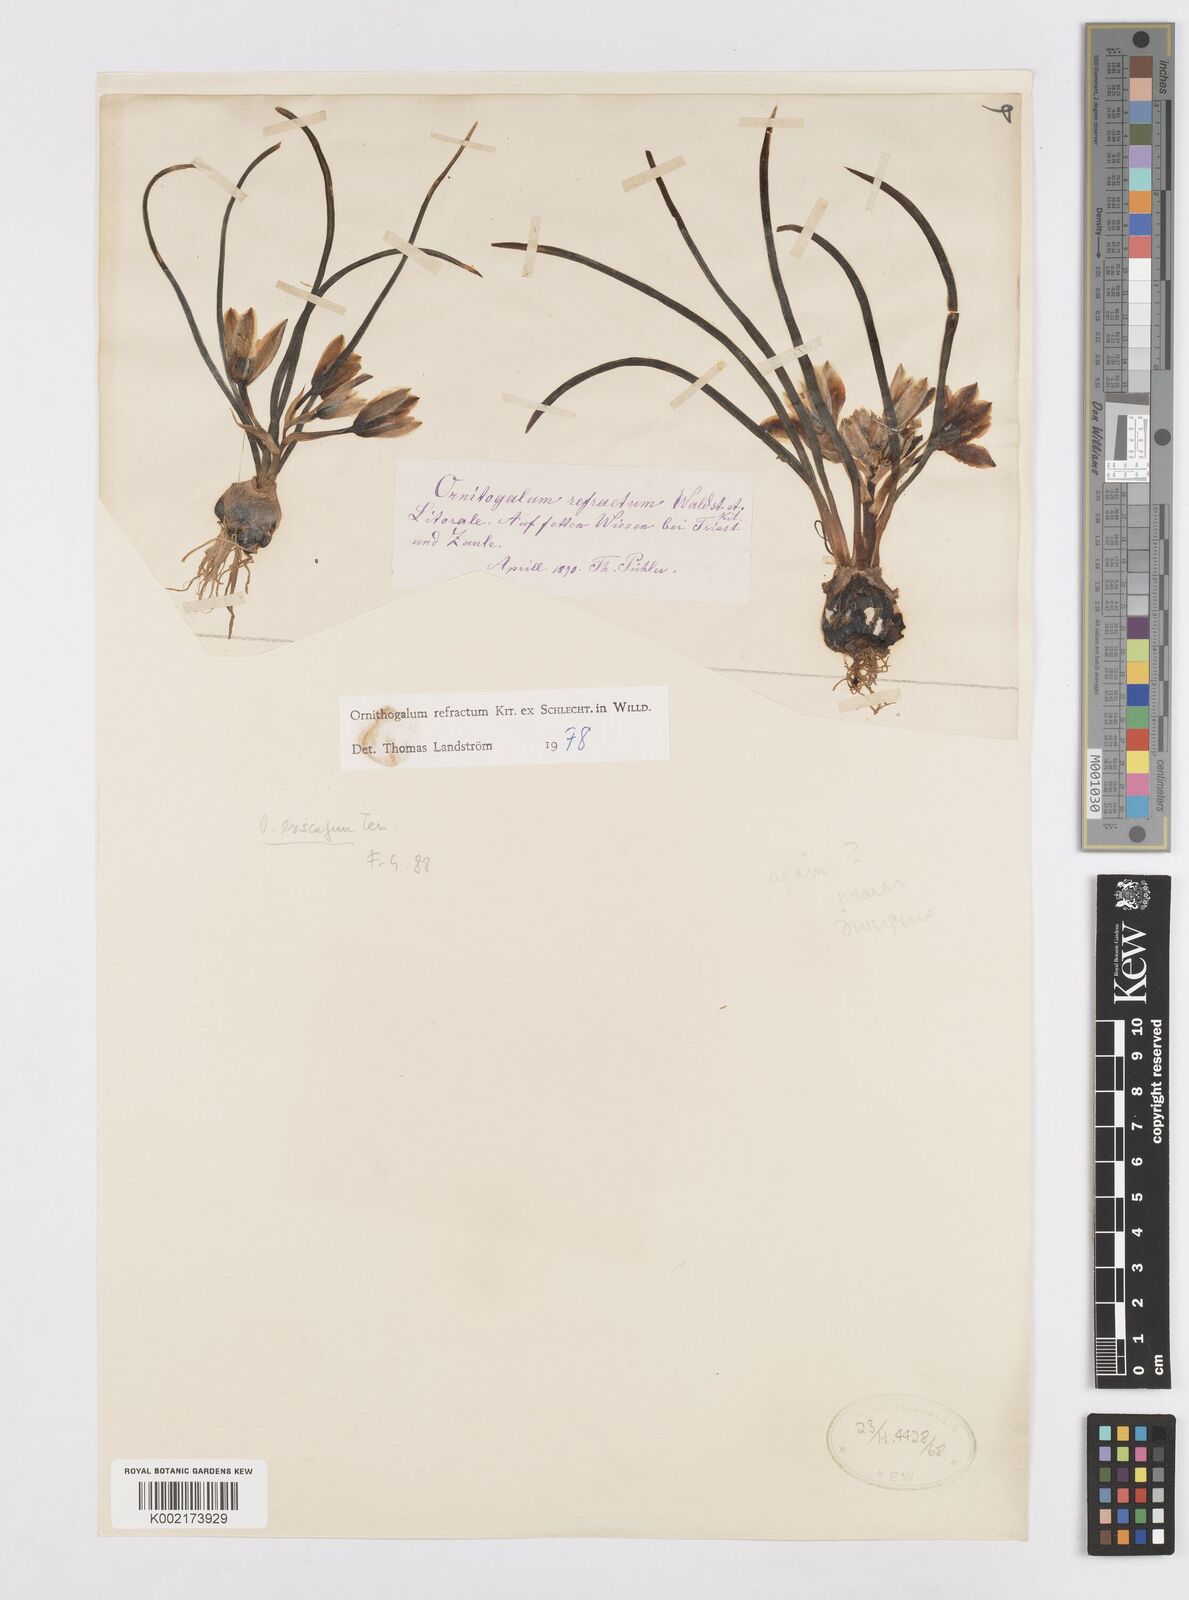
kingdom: Plantae
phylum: Tracheophyta
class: Liliopsida
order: Asparagales
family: Asparagaceae
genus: Ornithogalum
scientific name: Ornithogalum refractum
